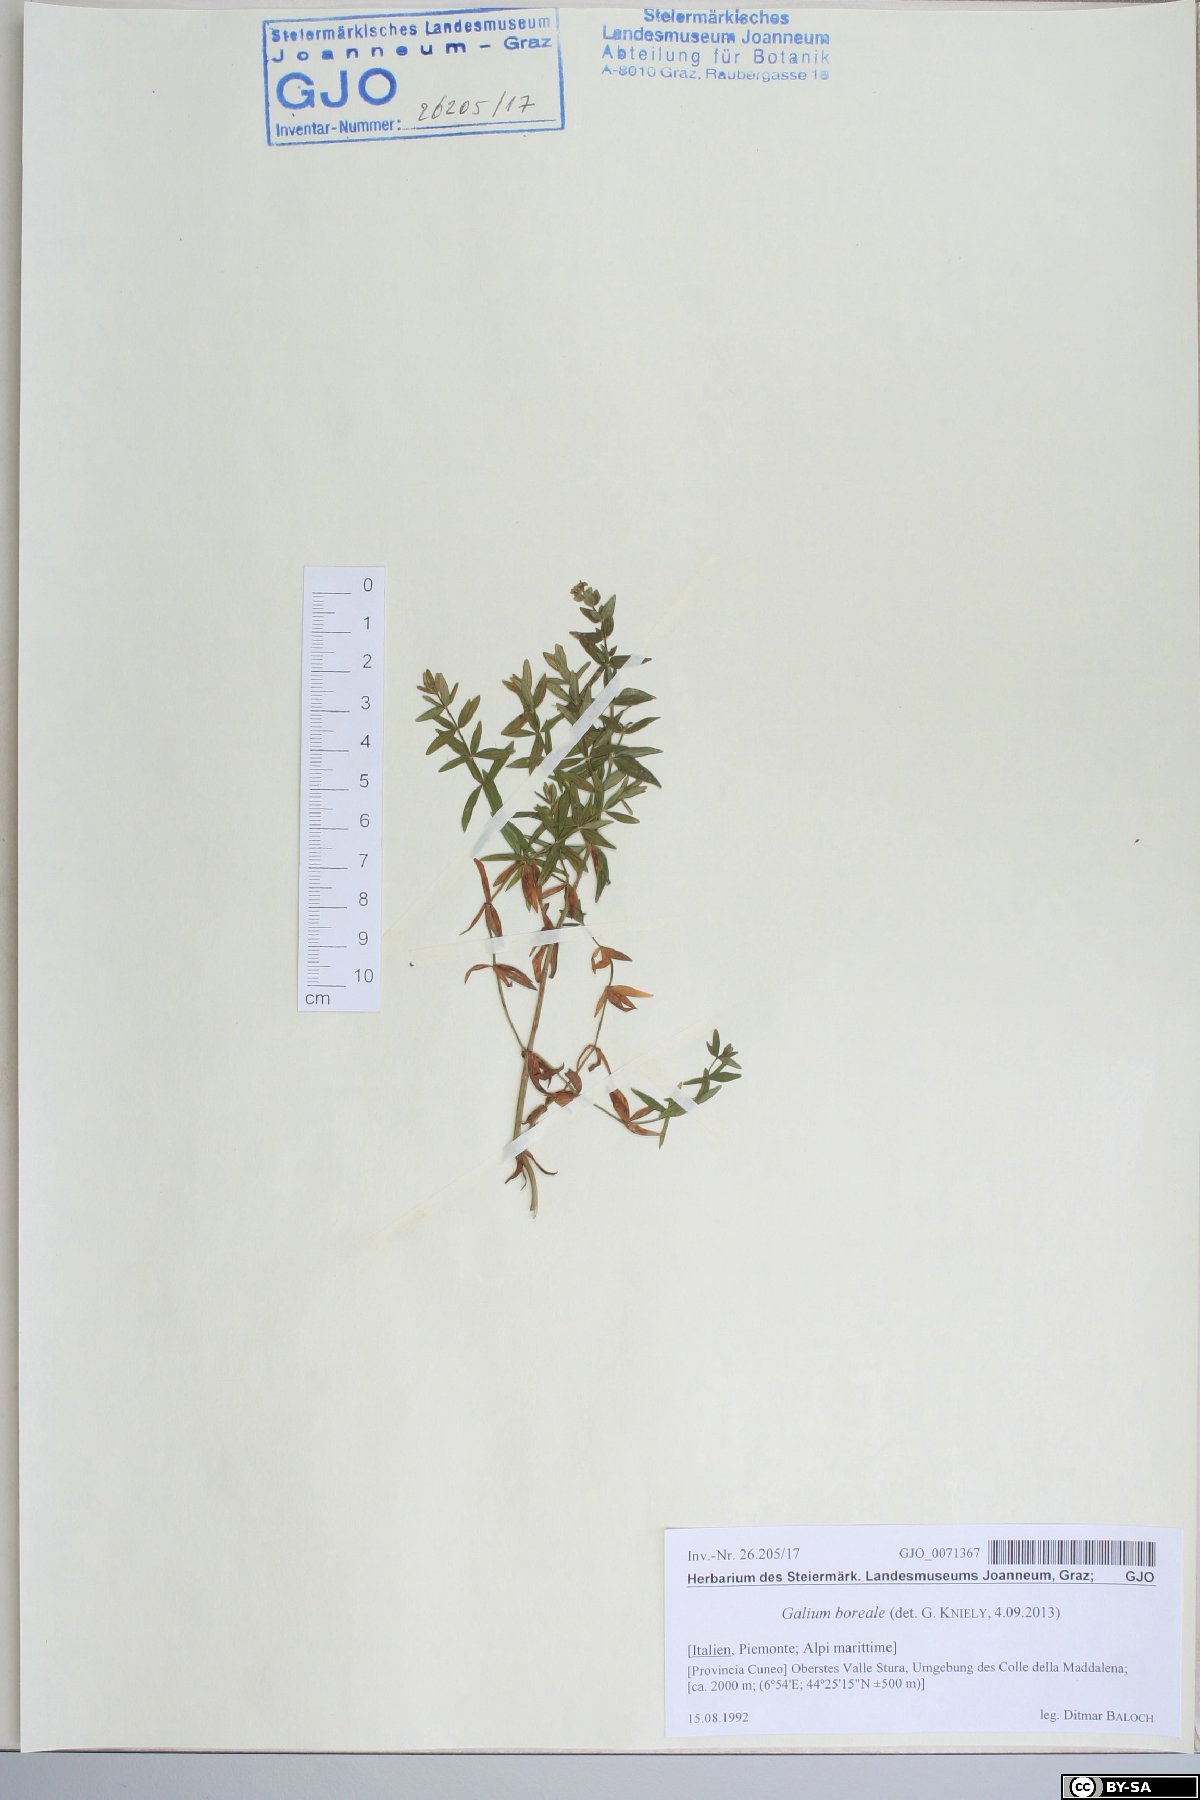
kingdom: Plantae
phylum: Tracheophyta
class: Magnoliopsida
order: Gentianales
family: Rubiaceae
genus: Galium
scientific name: Galium boreale
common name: Northern bedstraw
